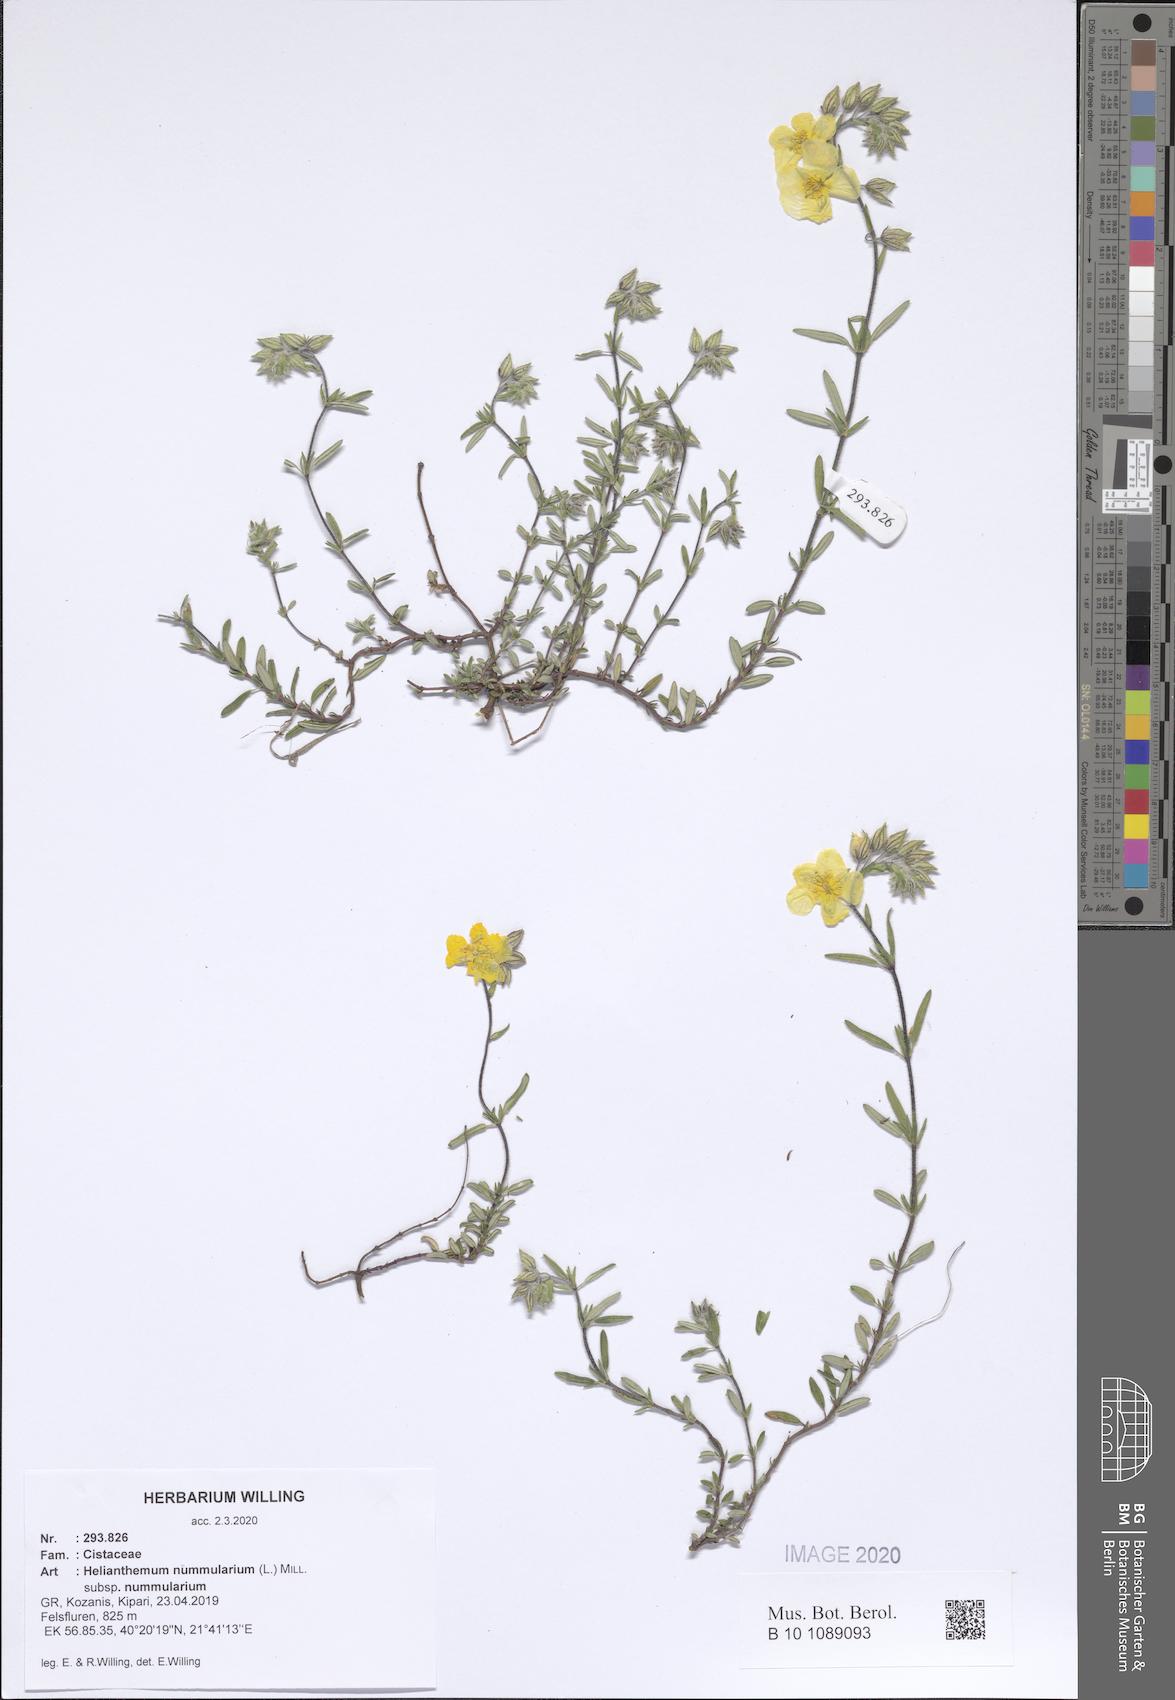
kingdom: Plantae
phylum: Tracheophyta
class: Magnoliopsida
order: Malvales
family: Cistaceae
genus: Helianthemum
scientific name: Helianthemum nummularium
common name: Common rock-rose
